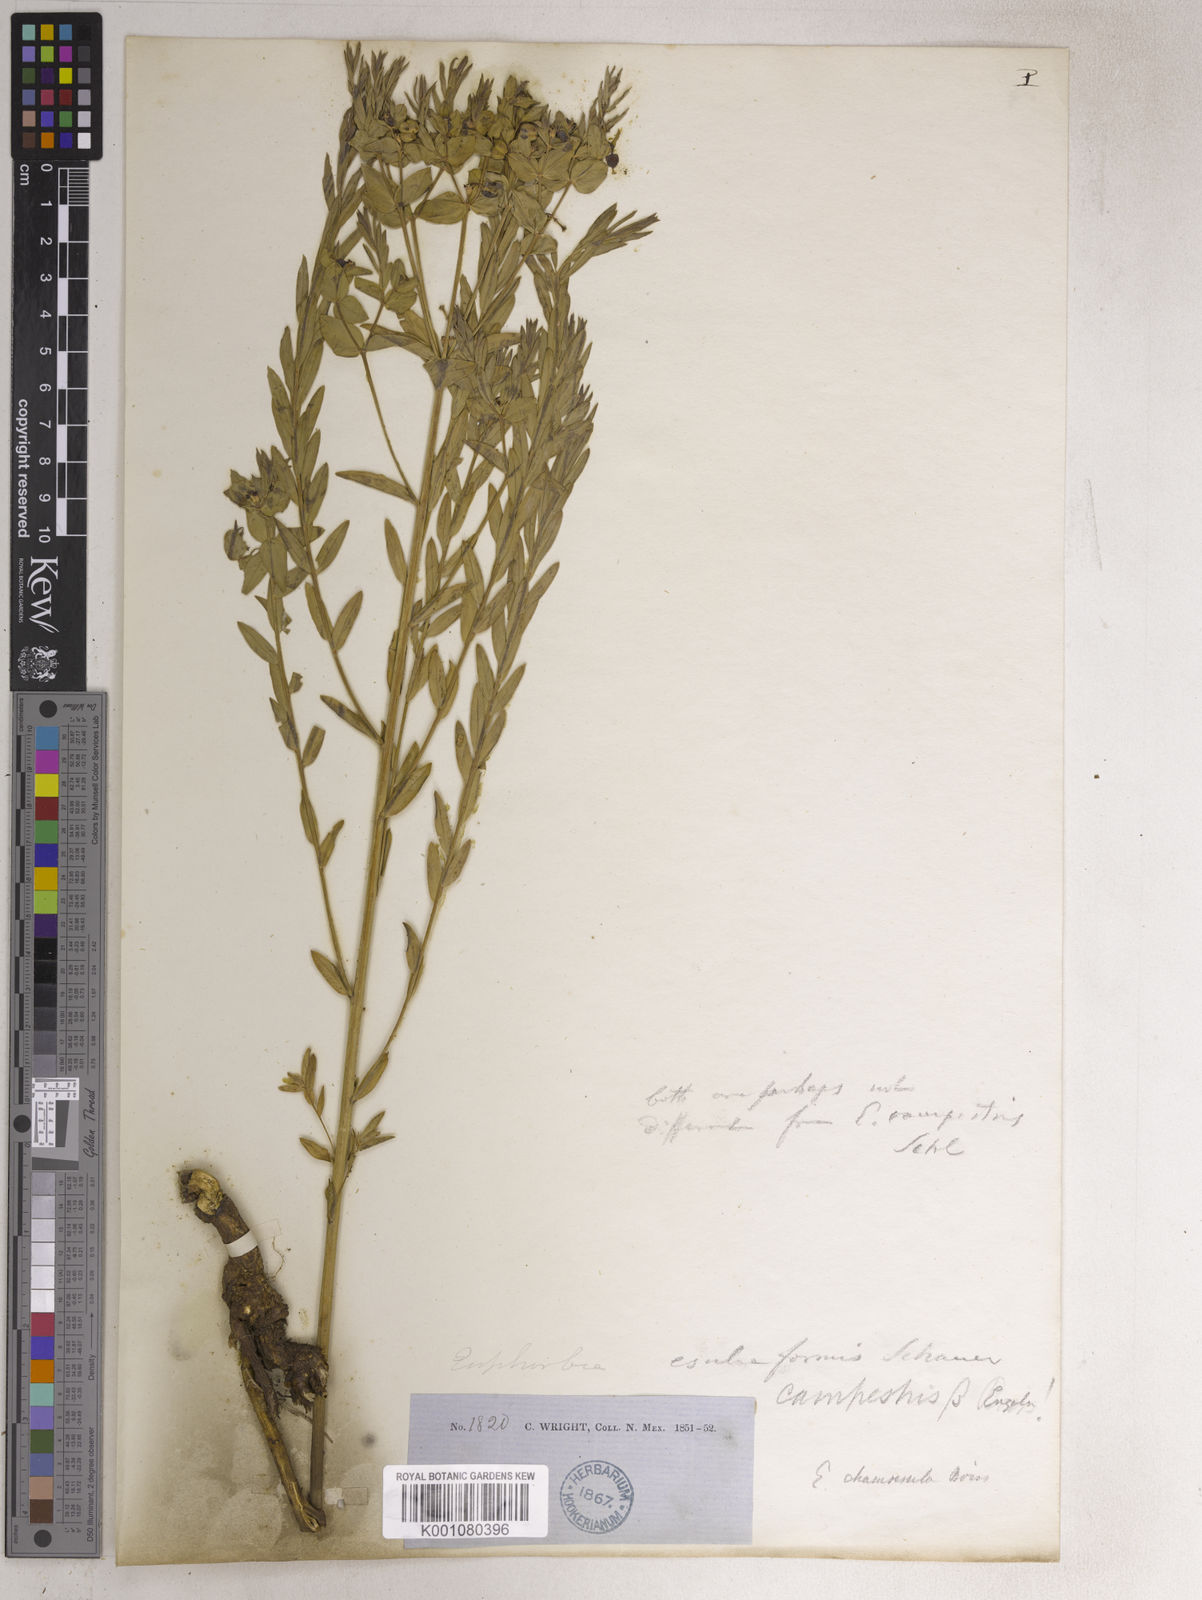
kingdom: Plantae
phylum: Tracheophyta
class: Magnoliopsida
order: Malpighiales
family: Euphorbiaceae
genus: Euphorbia
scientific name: Euphorbia chamaesula
